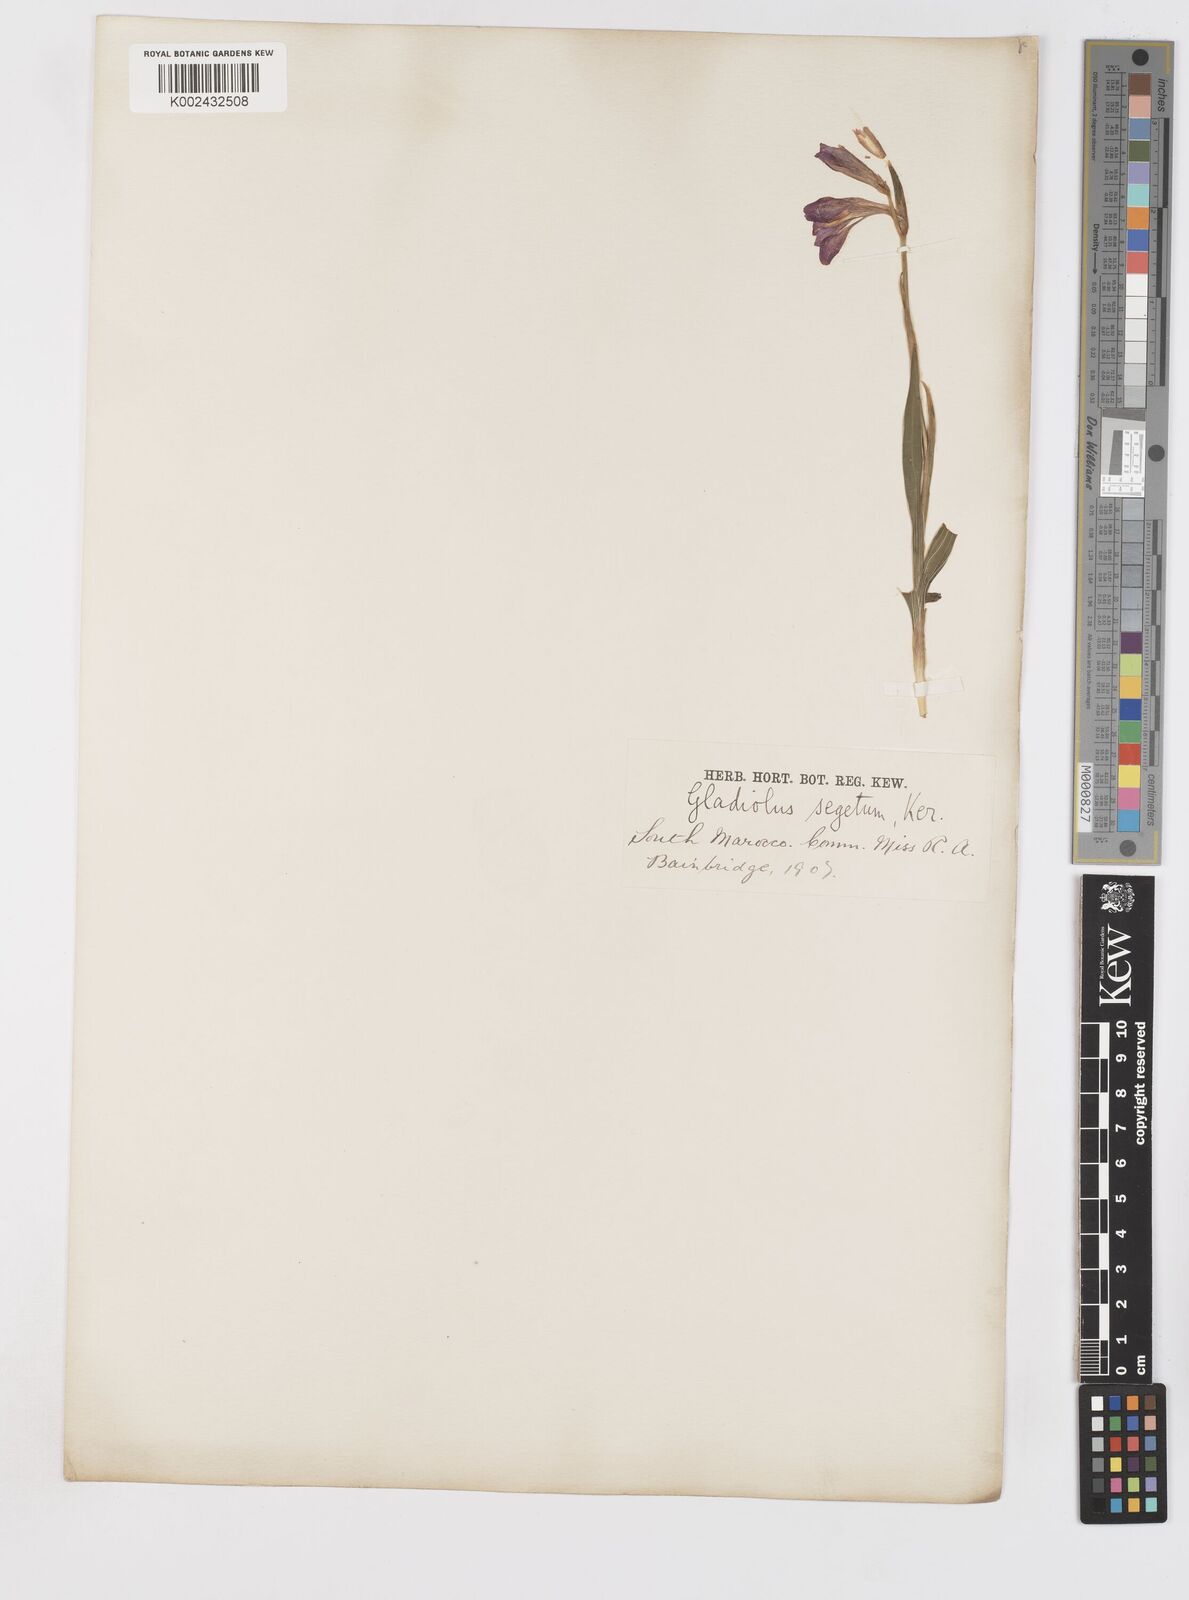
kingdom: Plantae
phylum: Tracheophyta
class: Liliopsida
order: Asparagales
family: Iridaceae
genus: Gladiolus
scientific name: Gladiolus italicus
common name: Field gladiolus
